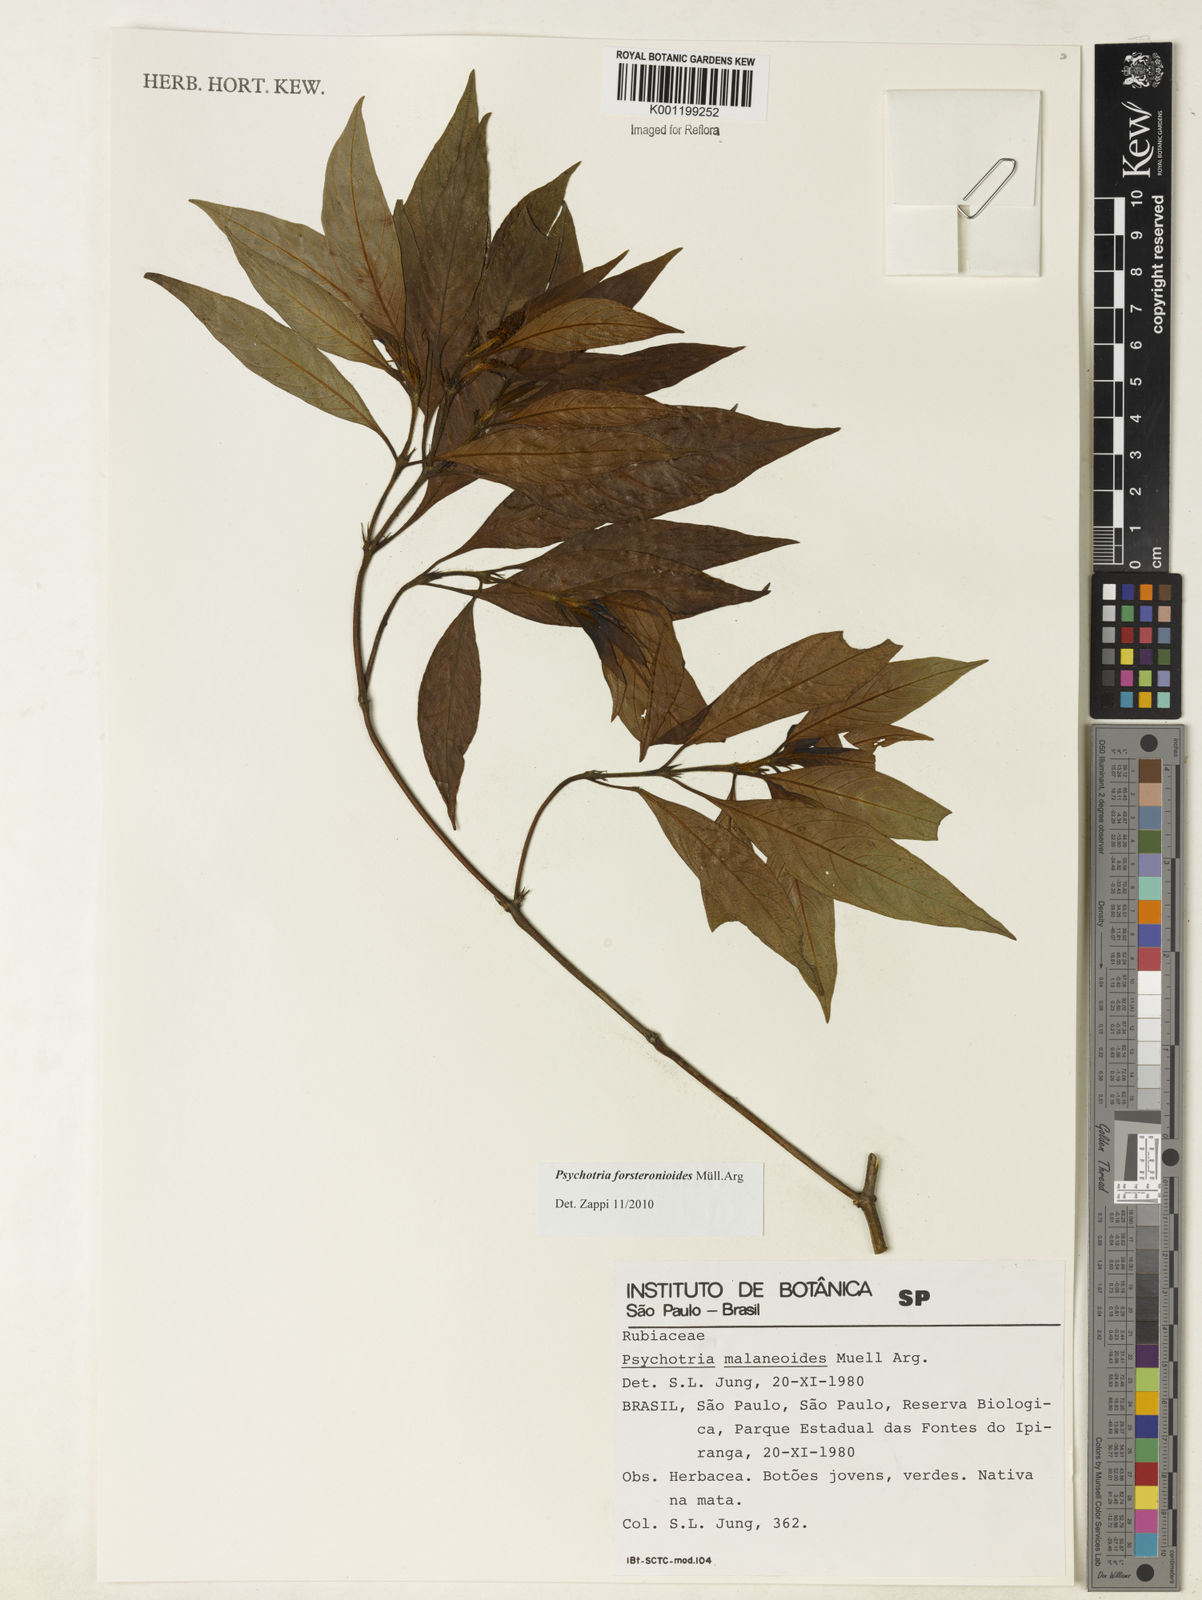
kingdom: Plantae
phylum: Tracheophyta
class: Magnoliopsida
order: Gentianales
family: Rubiaceae
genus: Psychotria
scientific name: Psychotria
